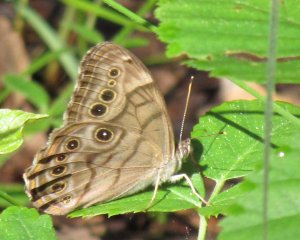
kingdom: Animalia
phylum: Arthropoda
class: Insecta
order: Lepidoptera
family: Nymphalidae
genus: Lethe
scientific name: Lethe anthedon
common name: Northern Pearly-Eye
